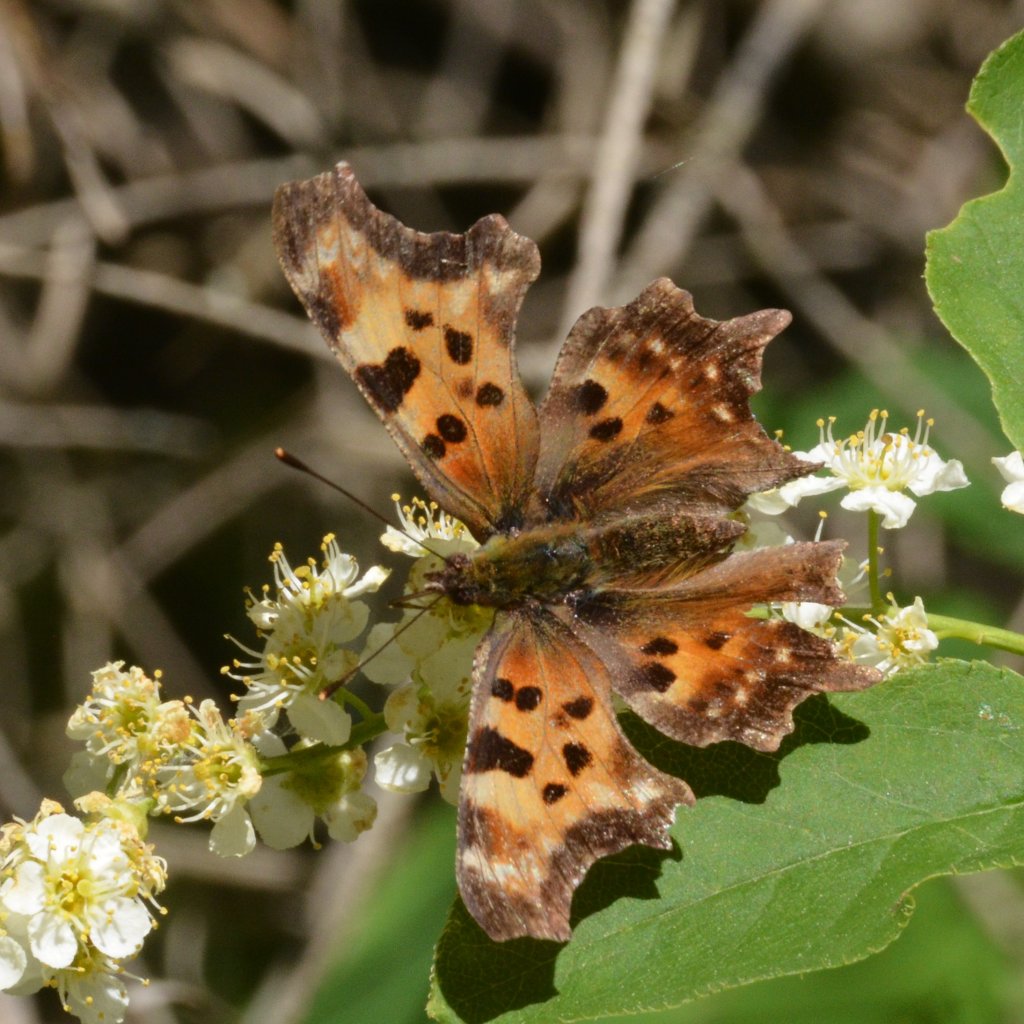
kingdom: Animalia
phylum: Arthropoda
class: Insecta
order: Lepidoptera
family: Nymphalidae
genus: Polygonia
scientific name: Polygonia faunus
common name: Green Comma
